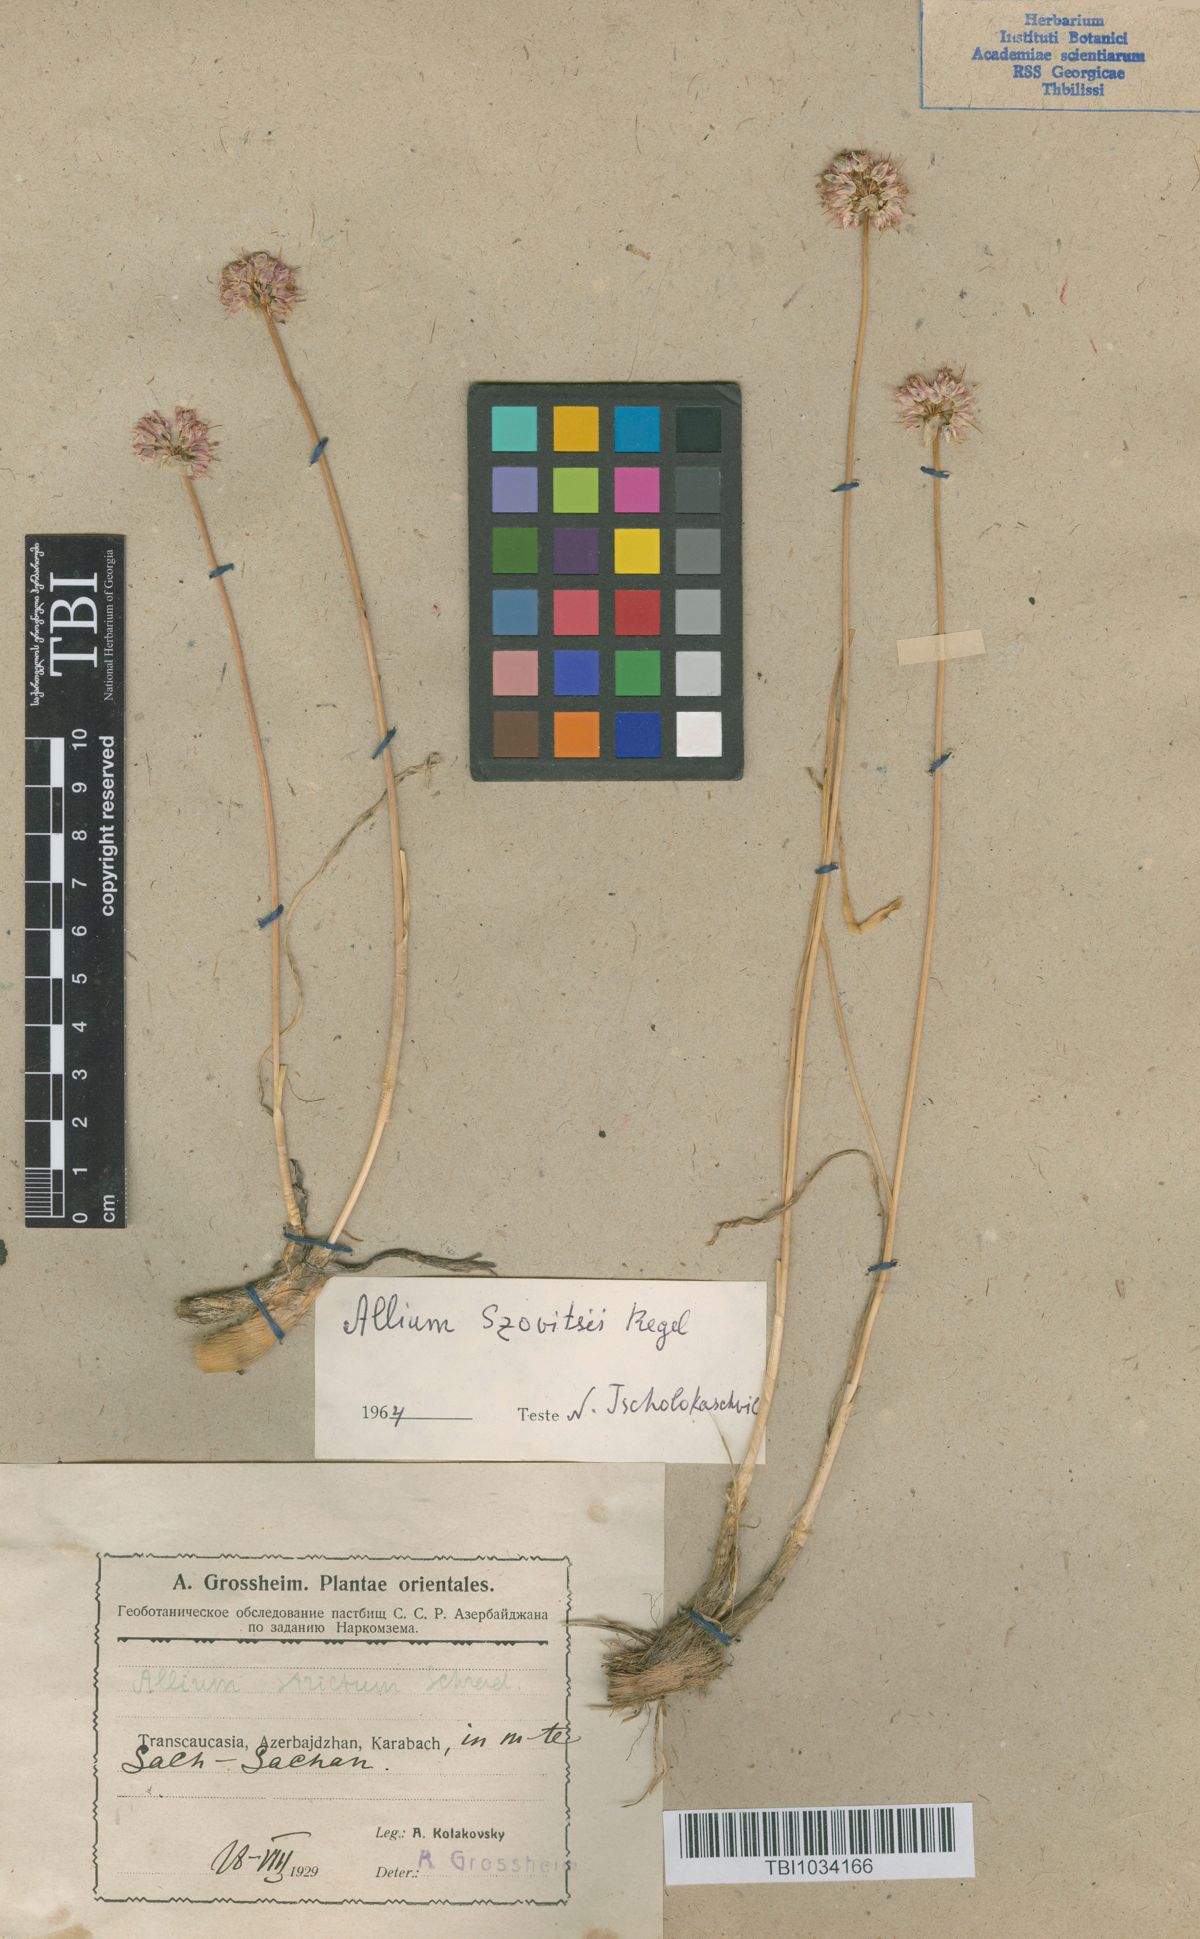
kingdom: Plantae
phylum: Tracheophyta
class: Liliopsida
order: Asparagales
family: Amaryllidaceae
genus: Allium
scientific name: Allium szovitsii
